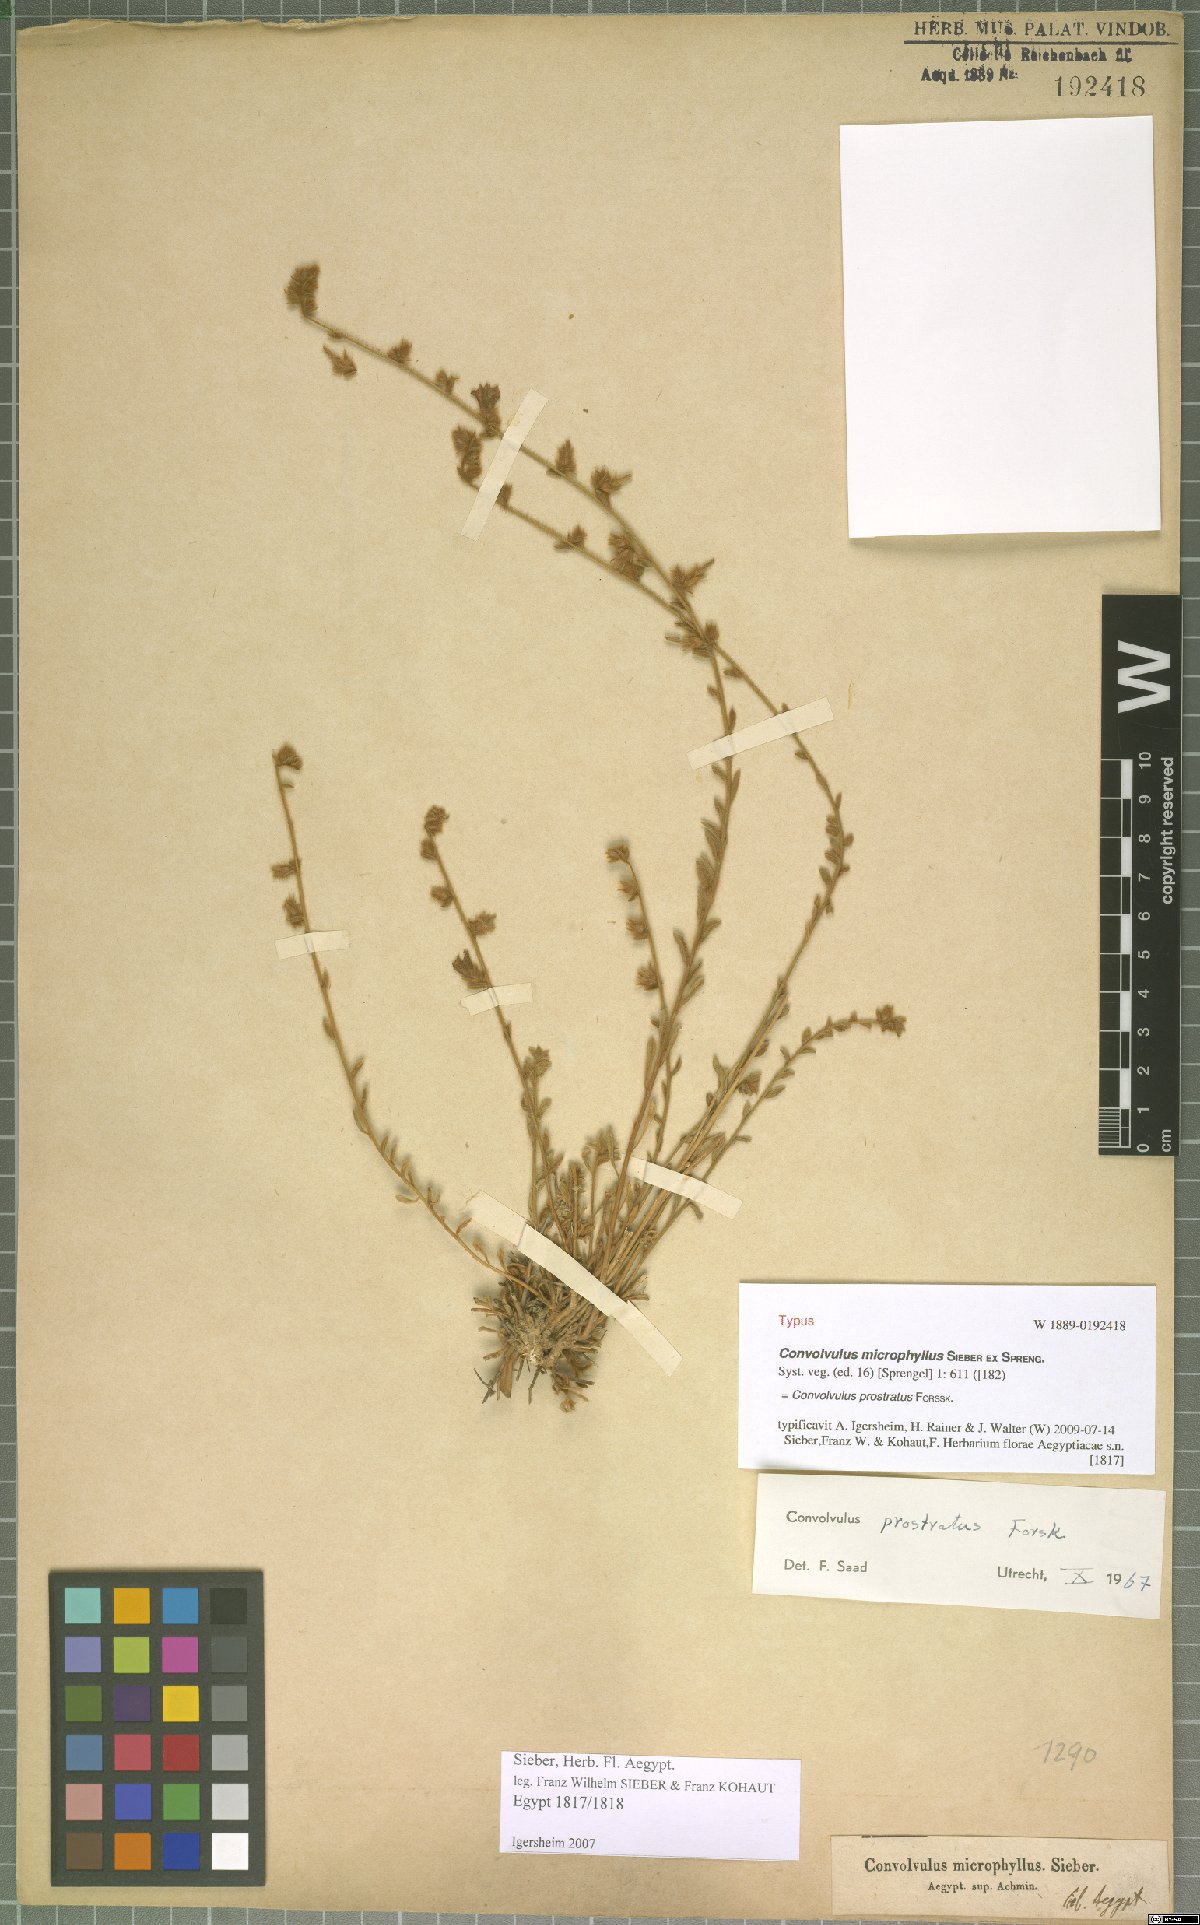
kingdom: Plantae
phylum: Tracheophyta
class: Magnoliopsida
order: Solanales
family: Convolvulaceae
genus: Convolvulus
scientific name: Convolvulus prostratus
